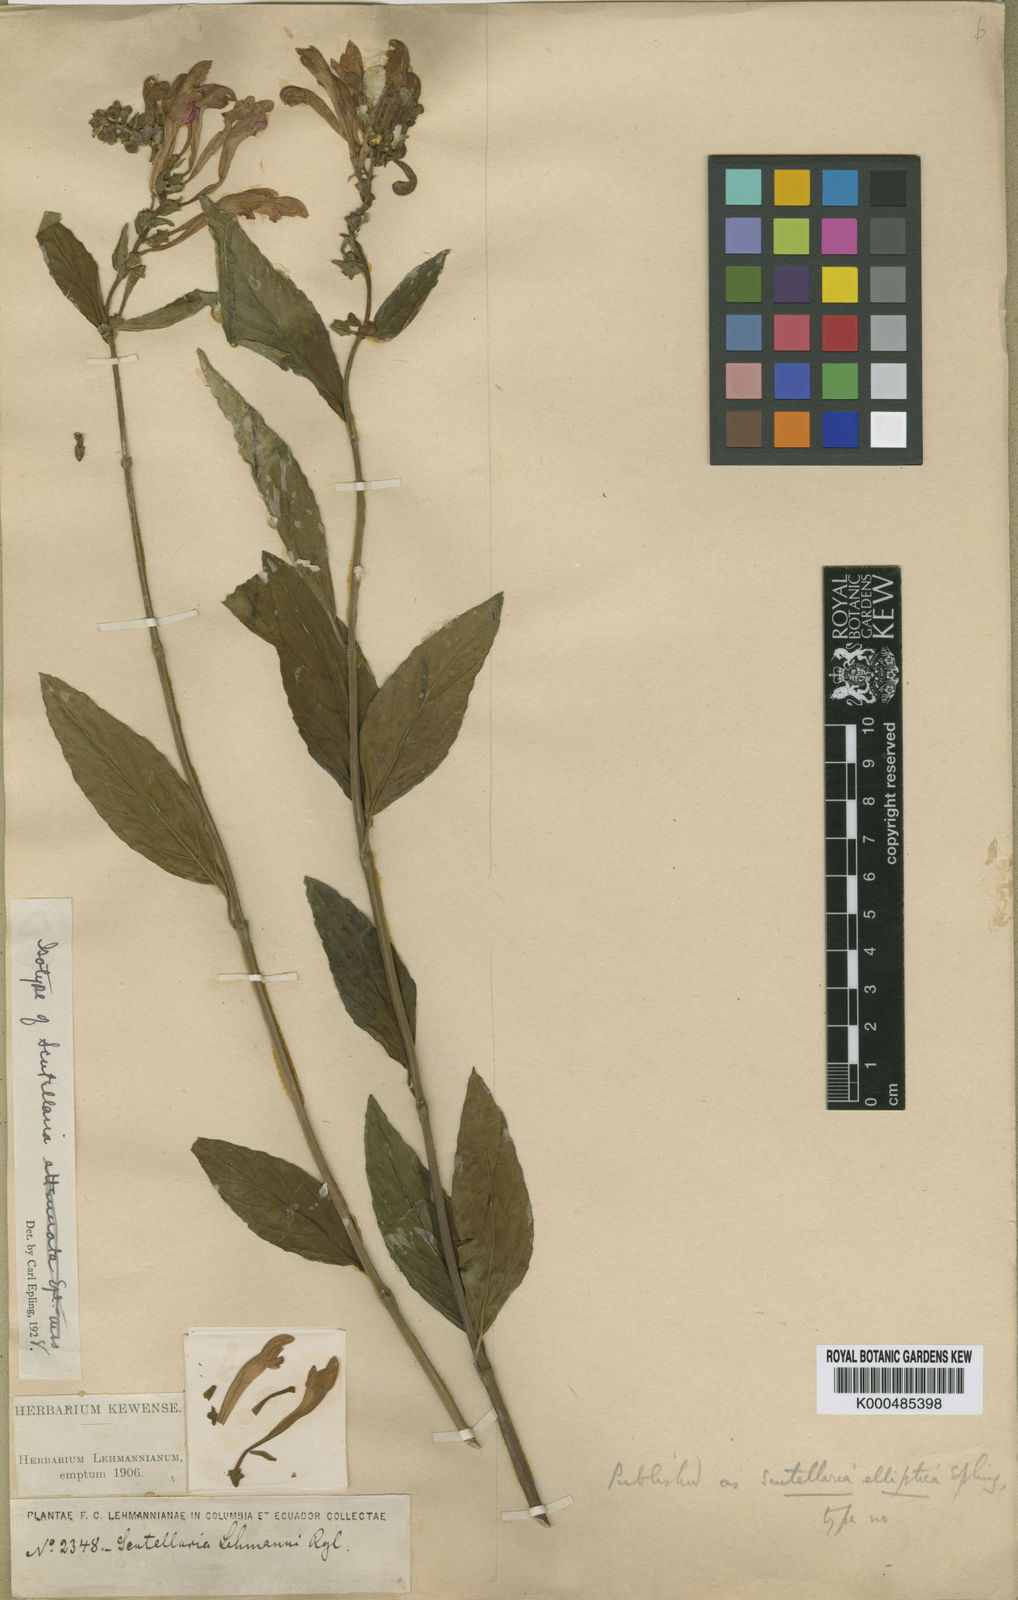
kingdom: Plantae
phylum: Tracheophyta
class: Magnoliopsida
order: Lamiales
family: Lamiaceae
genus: Scutellaria
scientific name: Scutellaria
